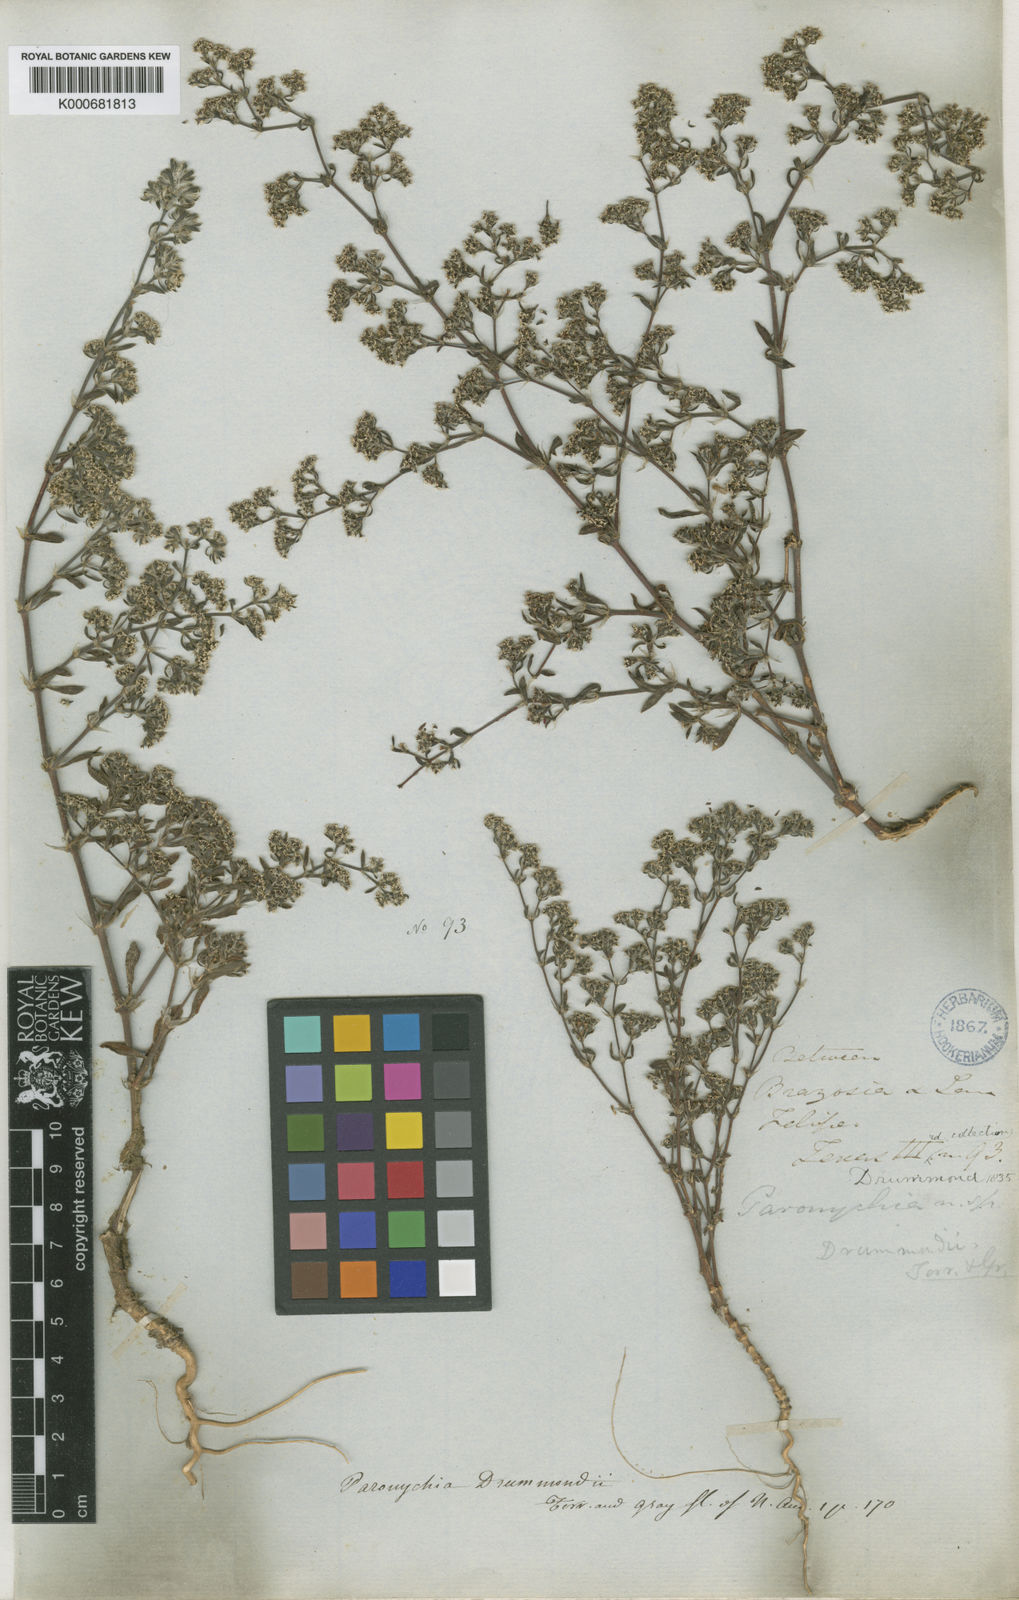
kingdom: Plantae
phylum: Tracheophyta
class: Magnoliopsida
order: Caryophyllales
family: Caryophyllaceae
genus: Paronychia
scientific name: Paronychia drummondii
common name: Drummond's nailwort
